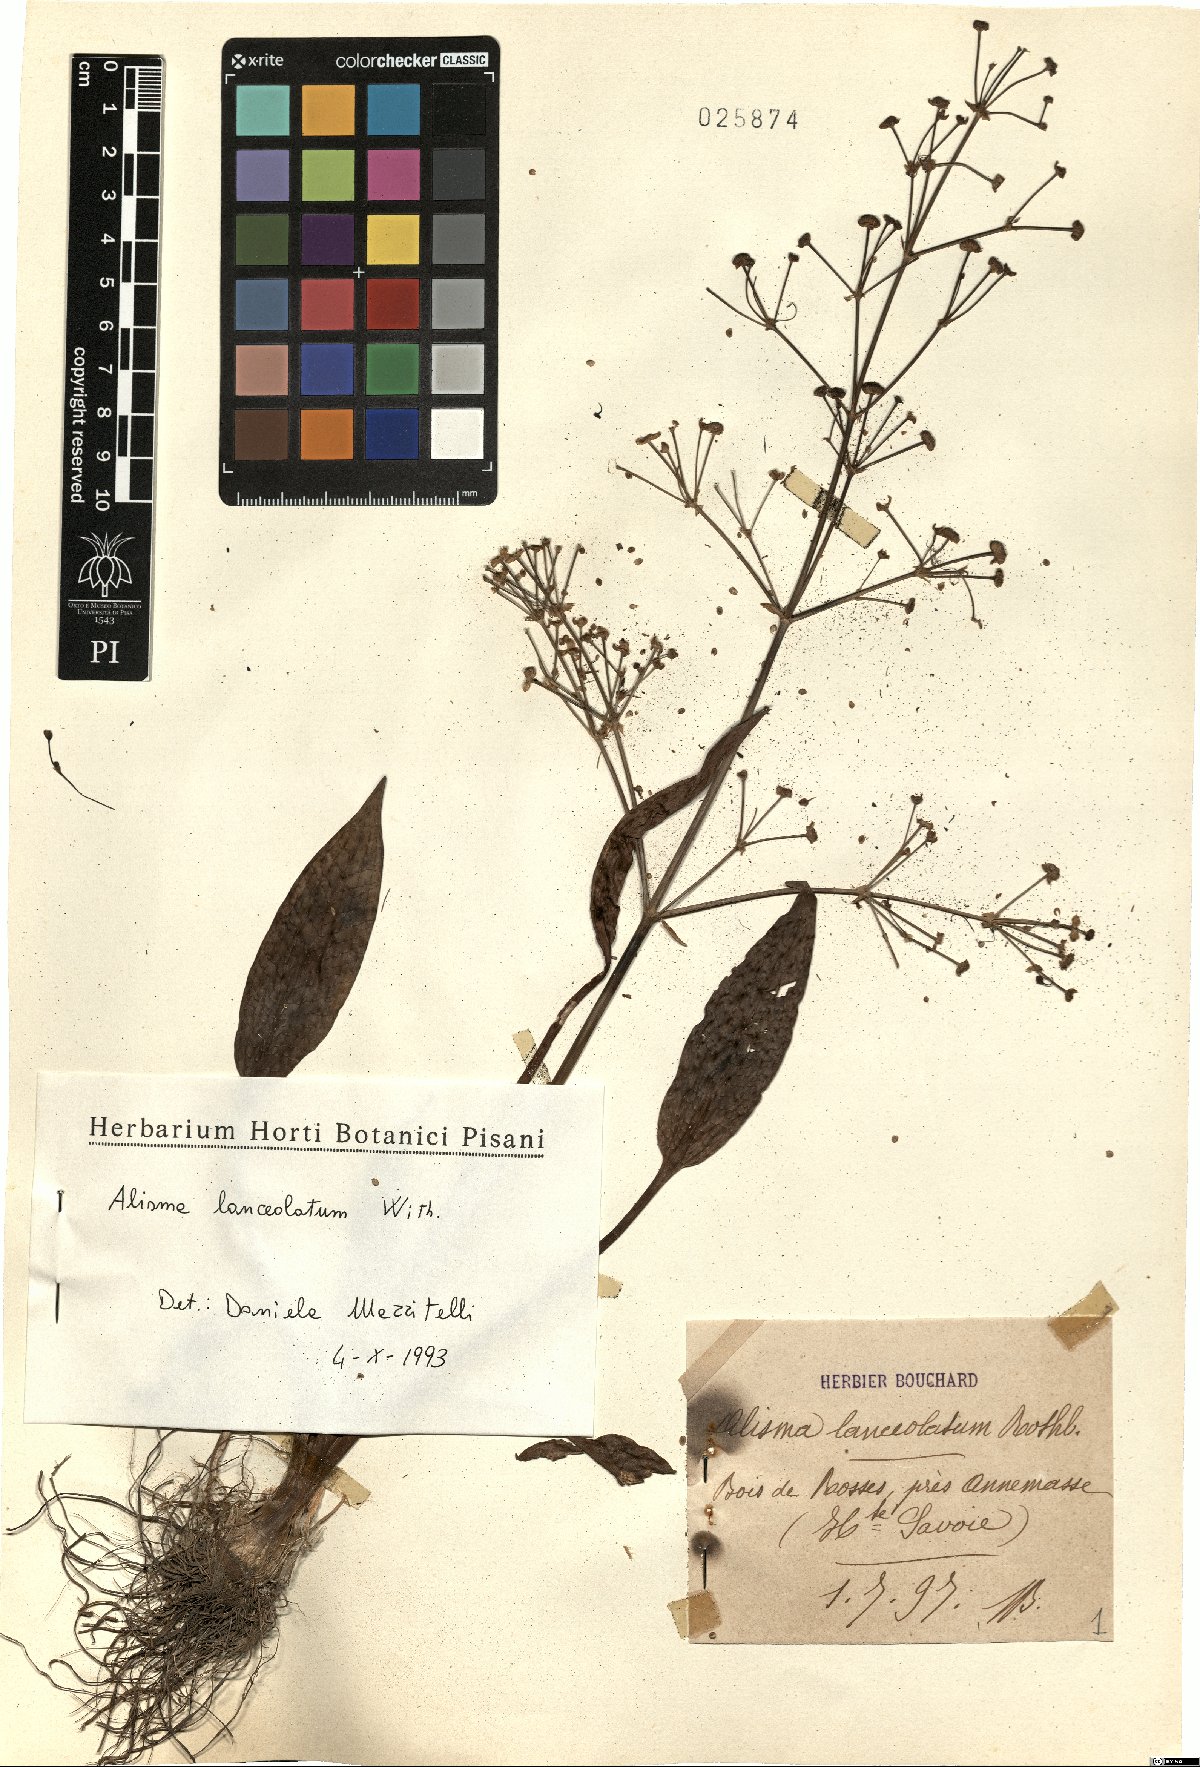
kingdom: Plantae
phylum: Tracheophyta
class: Liliopsida
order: Alismatales
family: Alismataceae
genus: Alisma
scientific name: Alisma lanceolatum
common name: Narrow-leaved water-plantain
